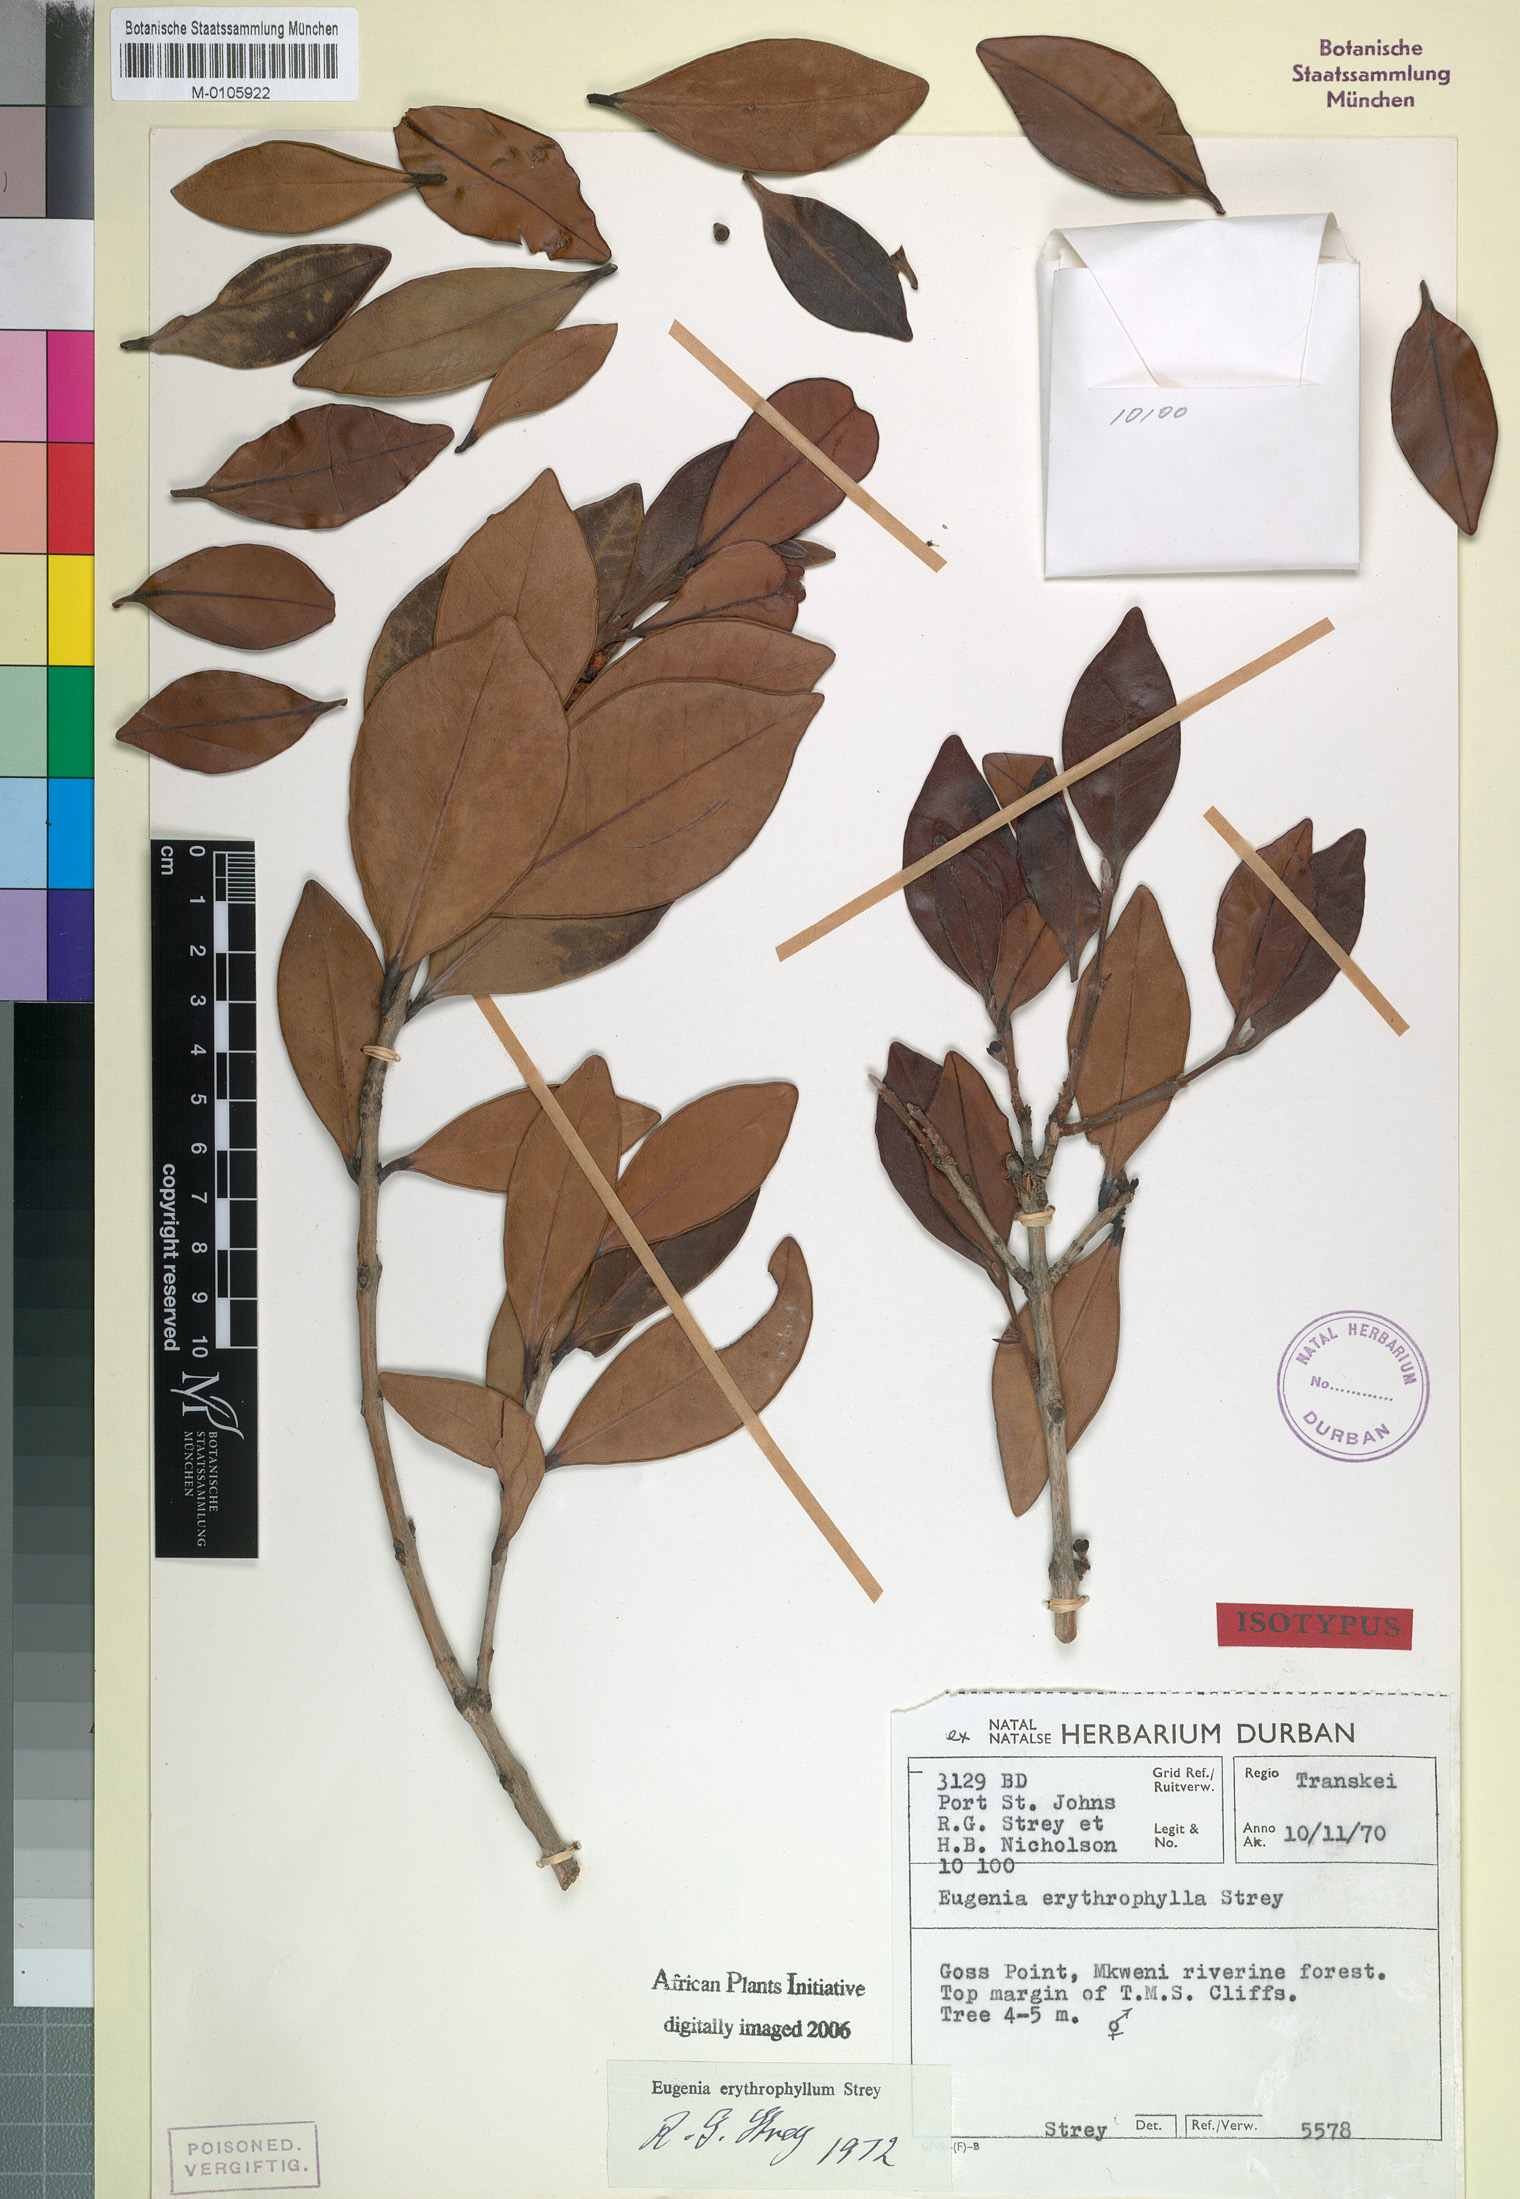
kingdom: Plantae
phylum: Tracheophyta
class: Magnoliopsida
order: Myrtales
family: Myrtaceae
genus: Eugenia
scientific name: Eugenia erythrophylla
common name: Large-leaved myrtle
